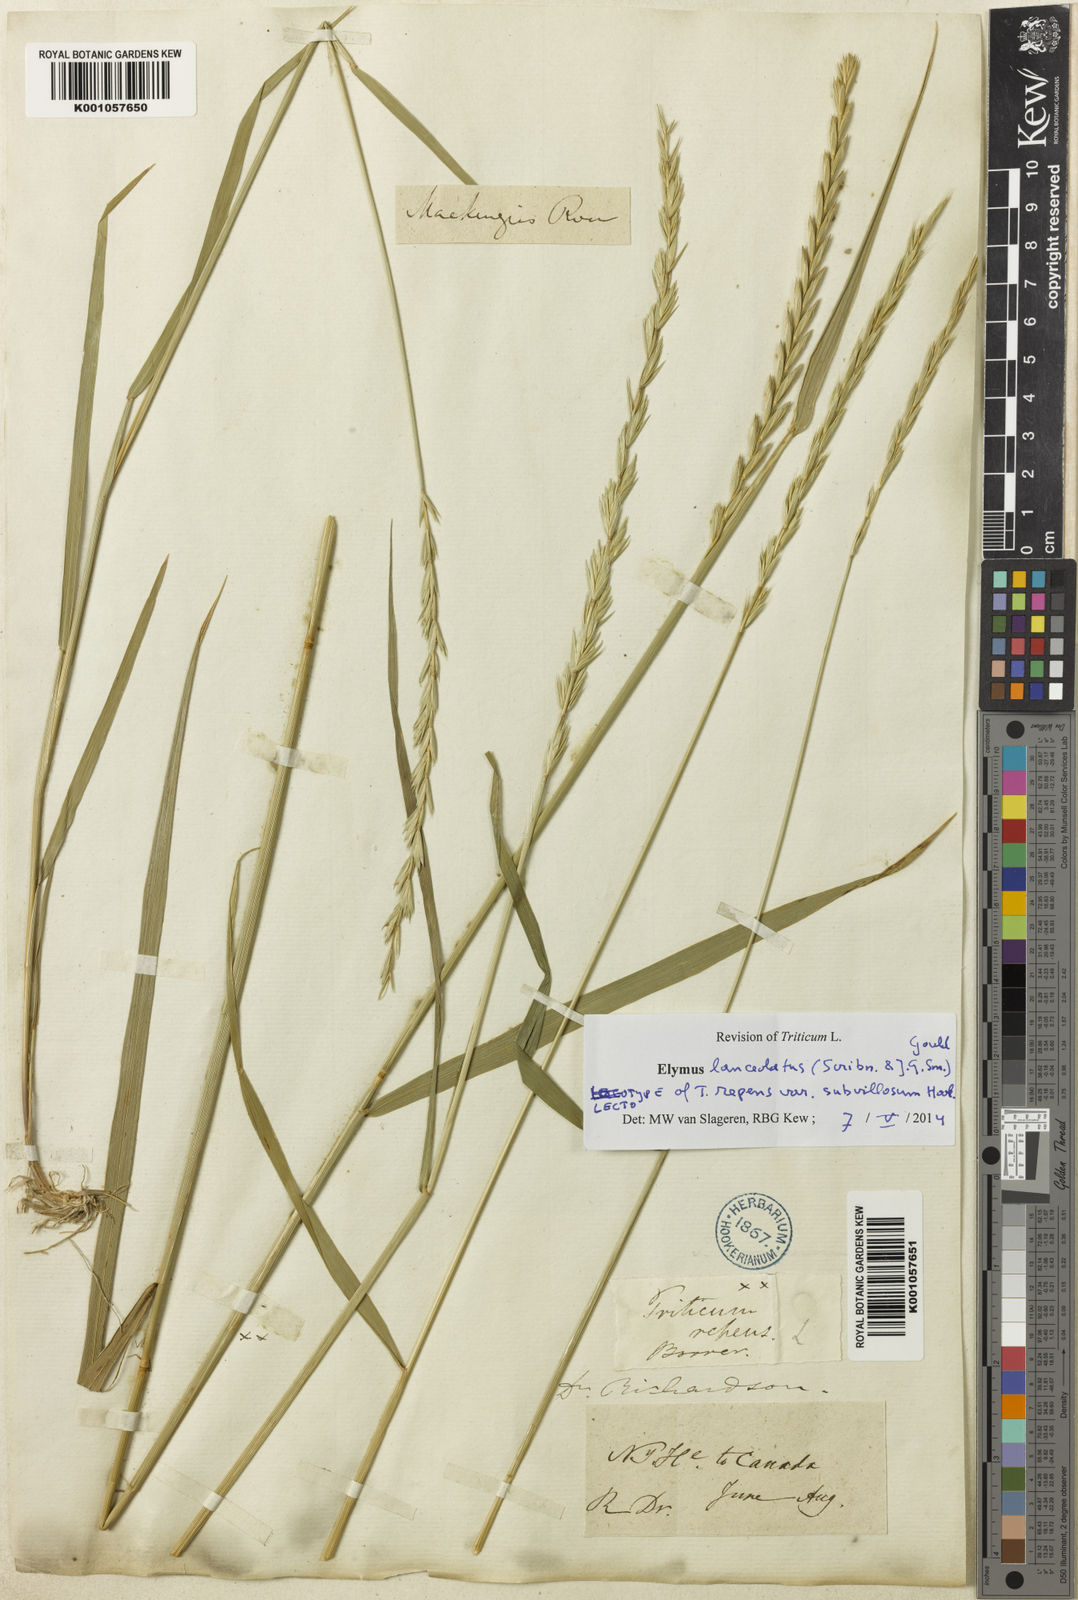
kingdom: Plantae
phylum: Tracheophyta
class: Liliopsida
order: Poales
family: Poaceae
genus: Elymus
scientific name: Elymus lanceolatus
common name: Thick-spike wheatgrass
